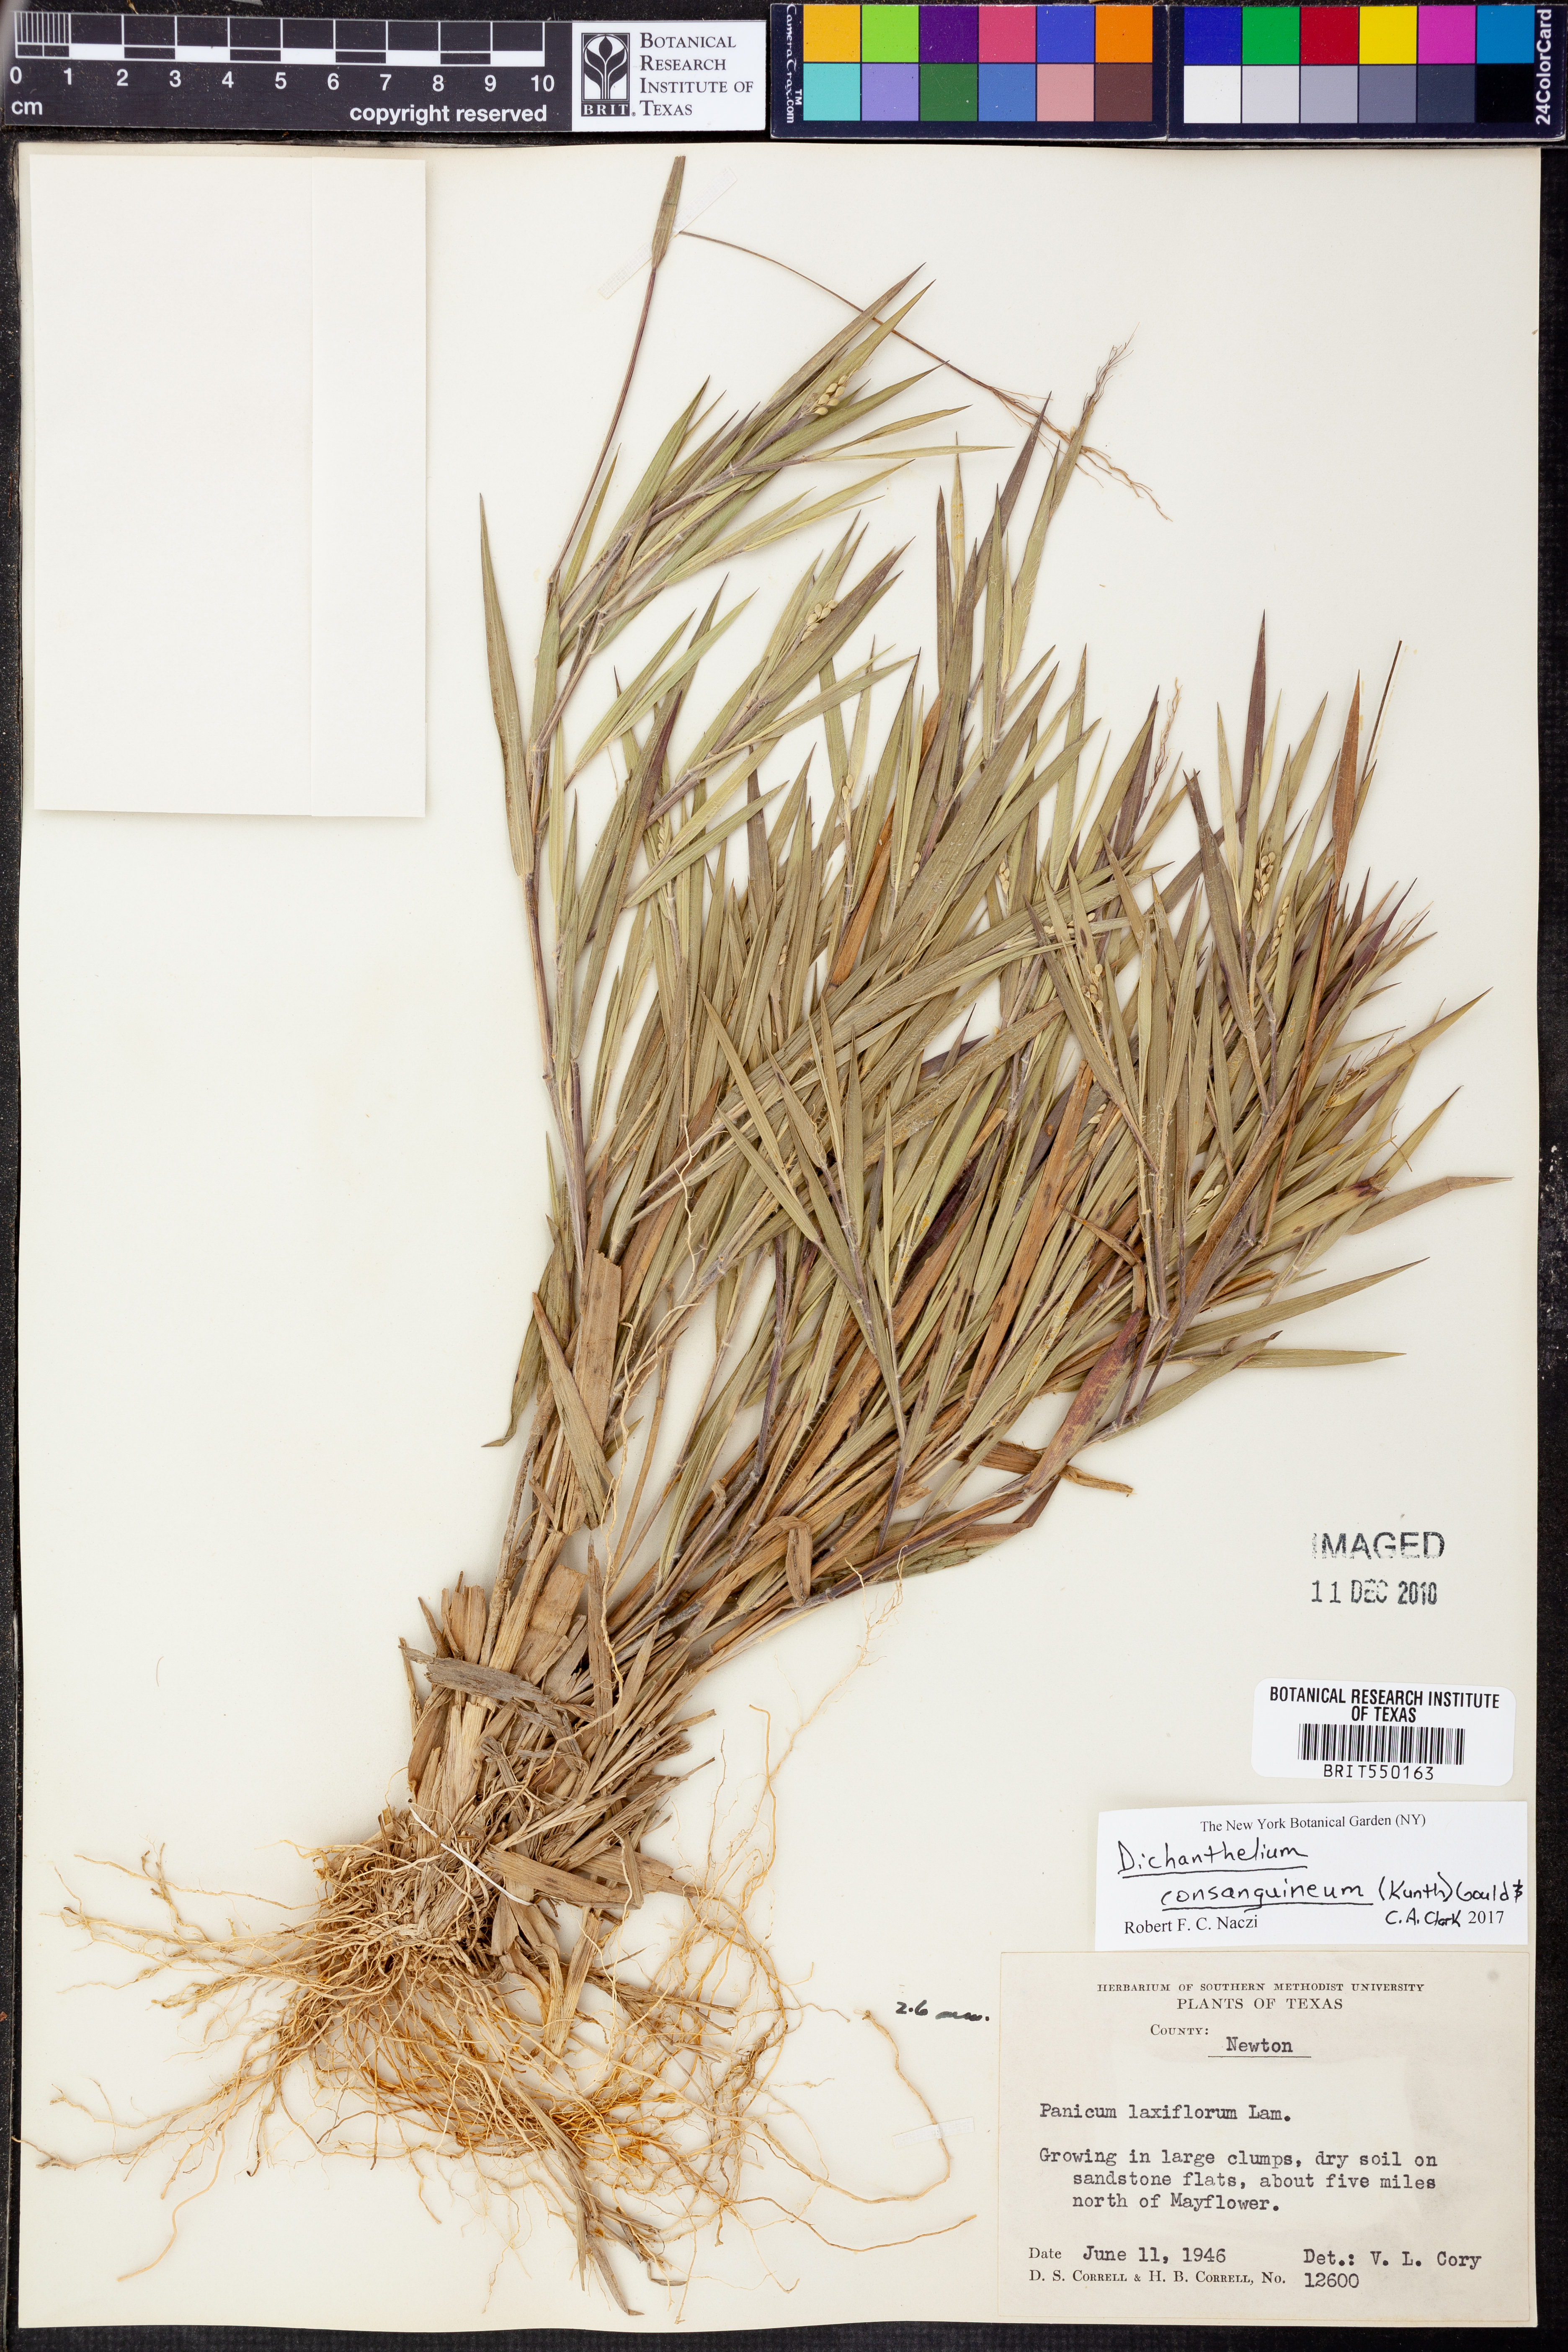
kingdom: Plantae
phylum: Tracheophyta
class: Liliopsida
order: Poales
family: Poaceae
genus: Dichanthelium
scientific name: Dichanthelium consanguineum
